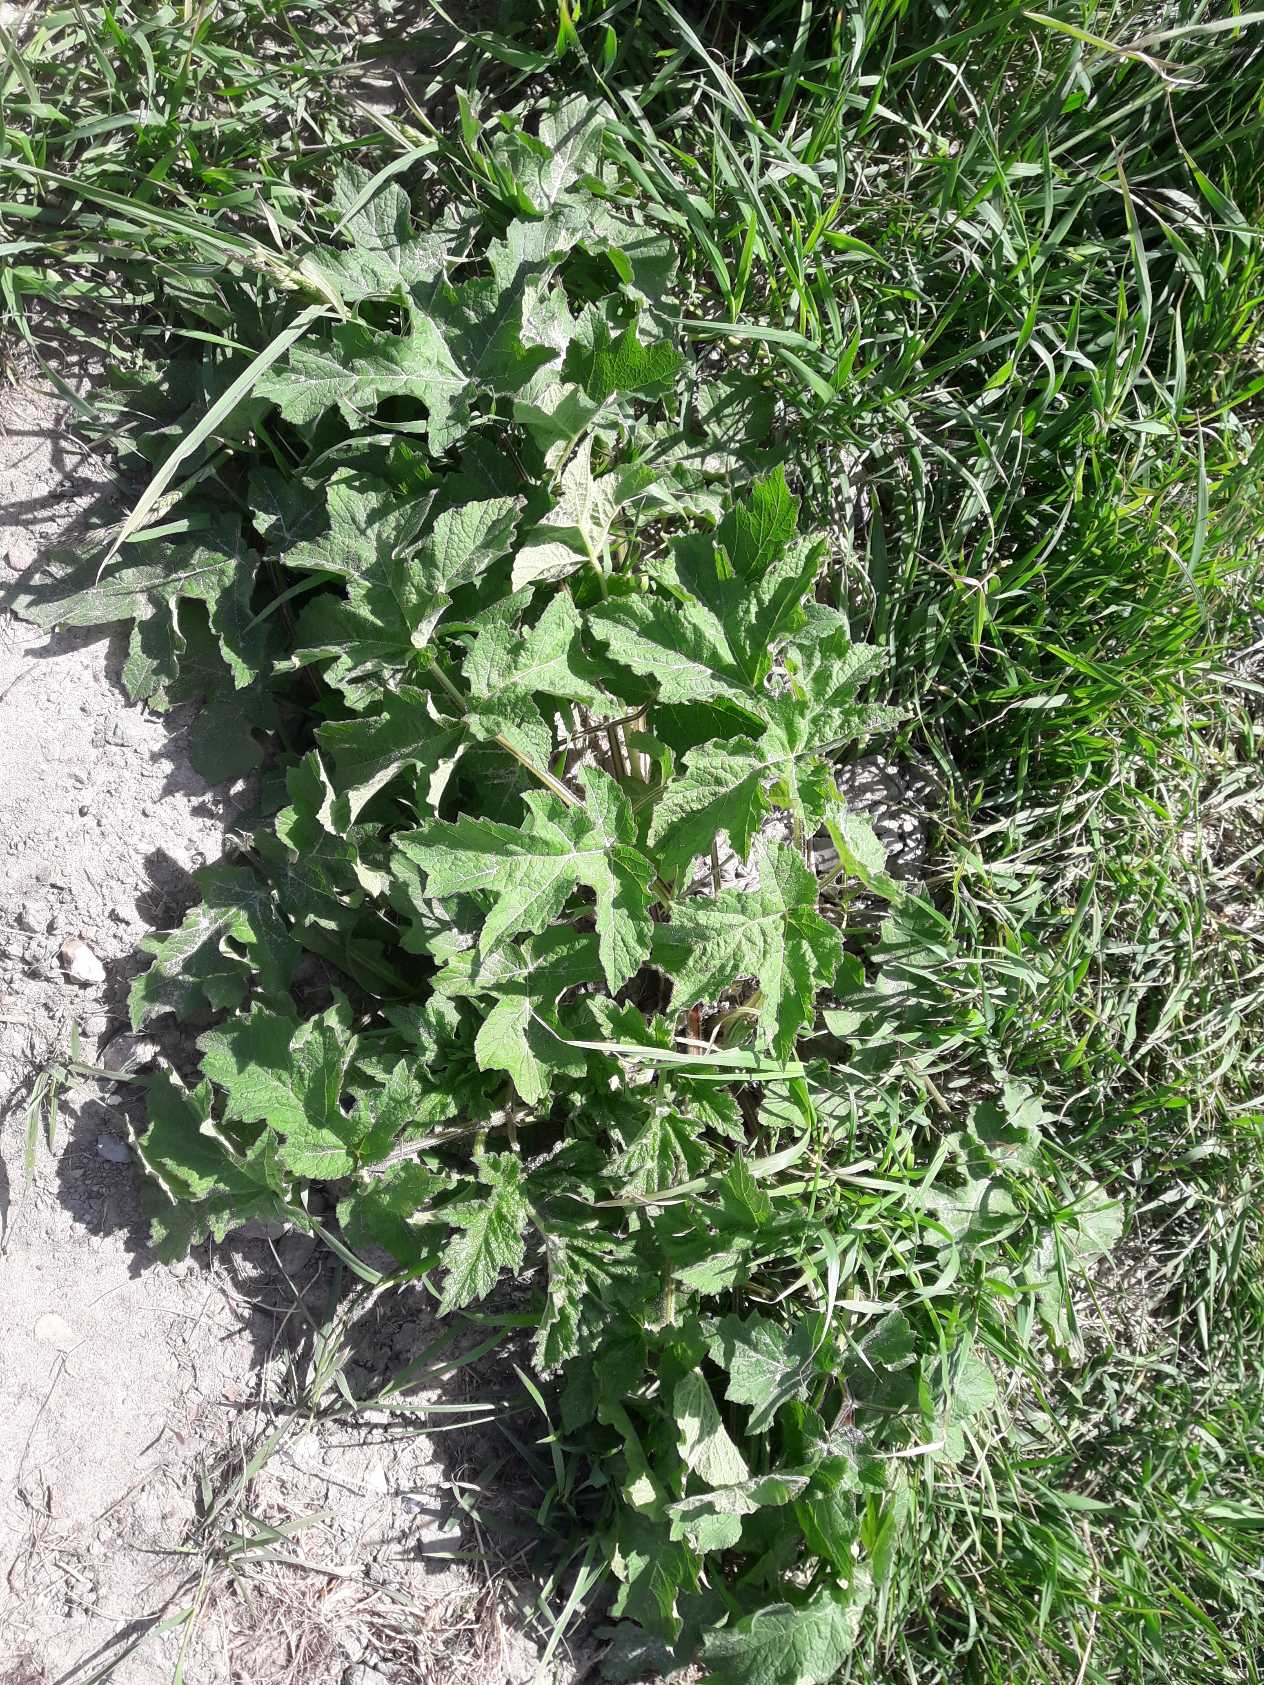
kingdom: Plantae
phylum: Tracheophyta
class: Magnoliopsida
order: Apiales
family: Apiaceae
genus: Heracleum
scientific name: Heracleum sphondylium
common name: Almindelig bjørneklo
